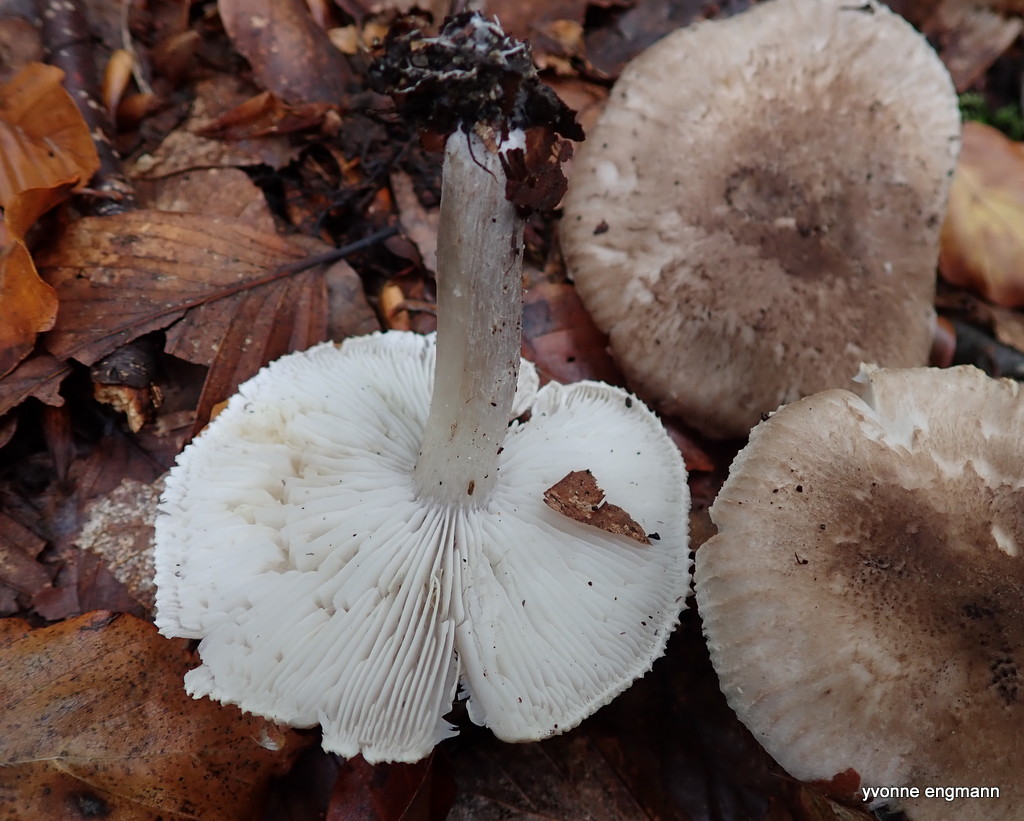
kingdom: Fungi
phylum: Basidiomycota
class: Agaricomycetes
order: Agaricales
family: Tricholomataceae
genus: Tricholoma
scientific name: Tricholoma scalpturatum
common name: gulplettet ridderhat
